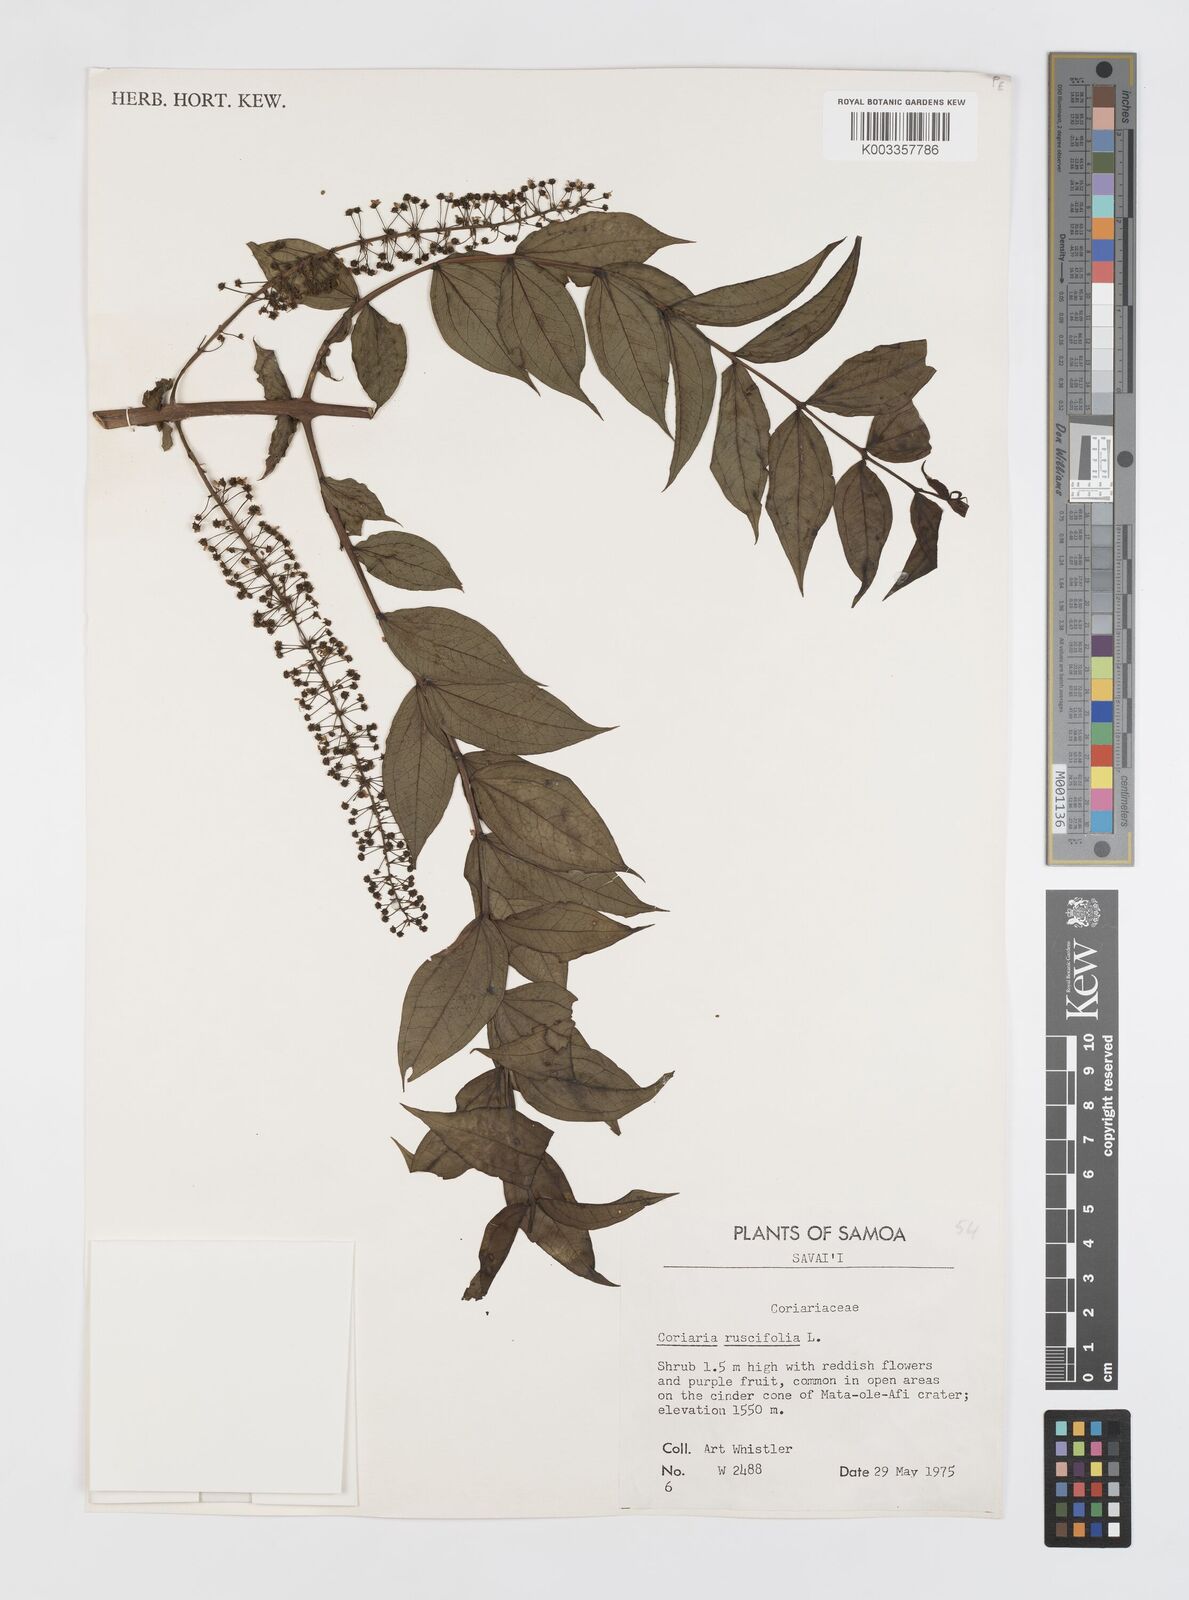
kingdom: Plantae
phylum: Tracheophyta
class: Magnoliopsida
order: Cucurbitales
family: Coriariaceae
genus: Coriaria
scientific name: Coriaria ruscifolia
